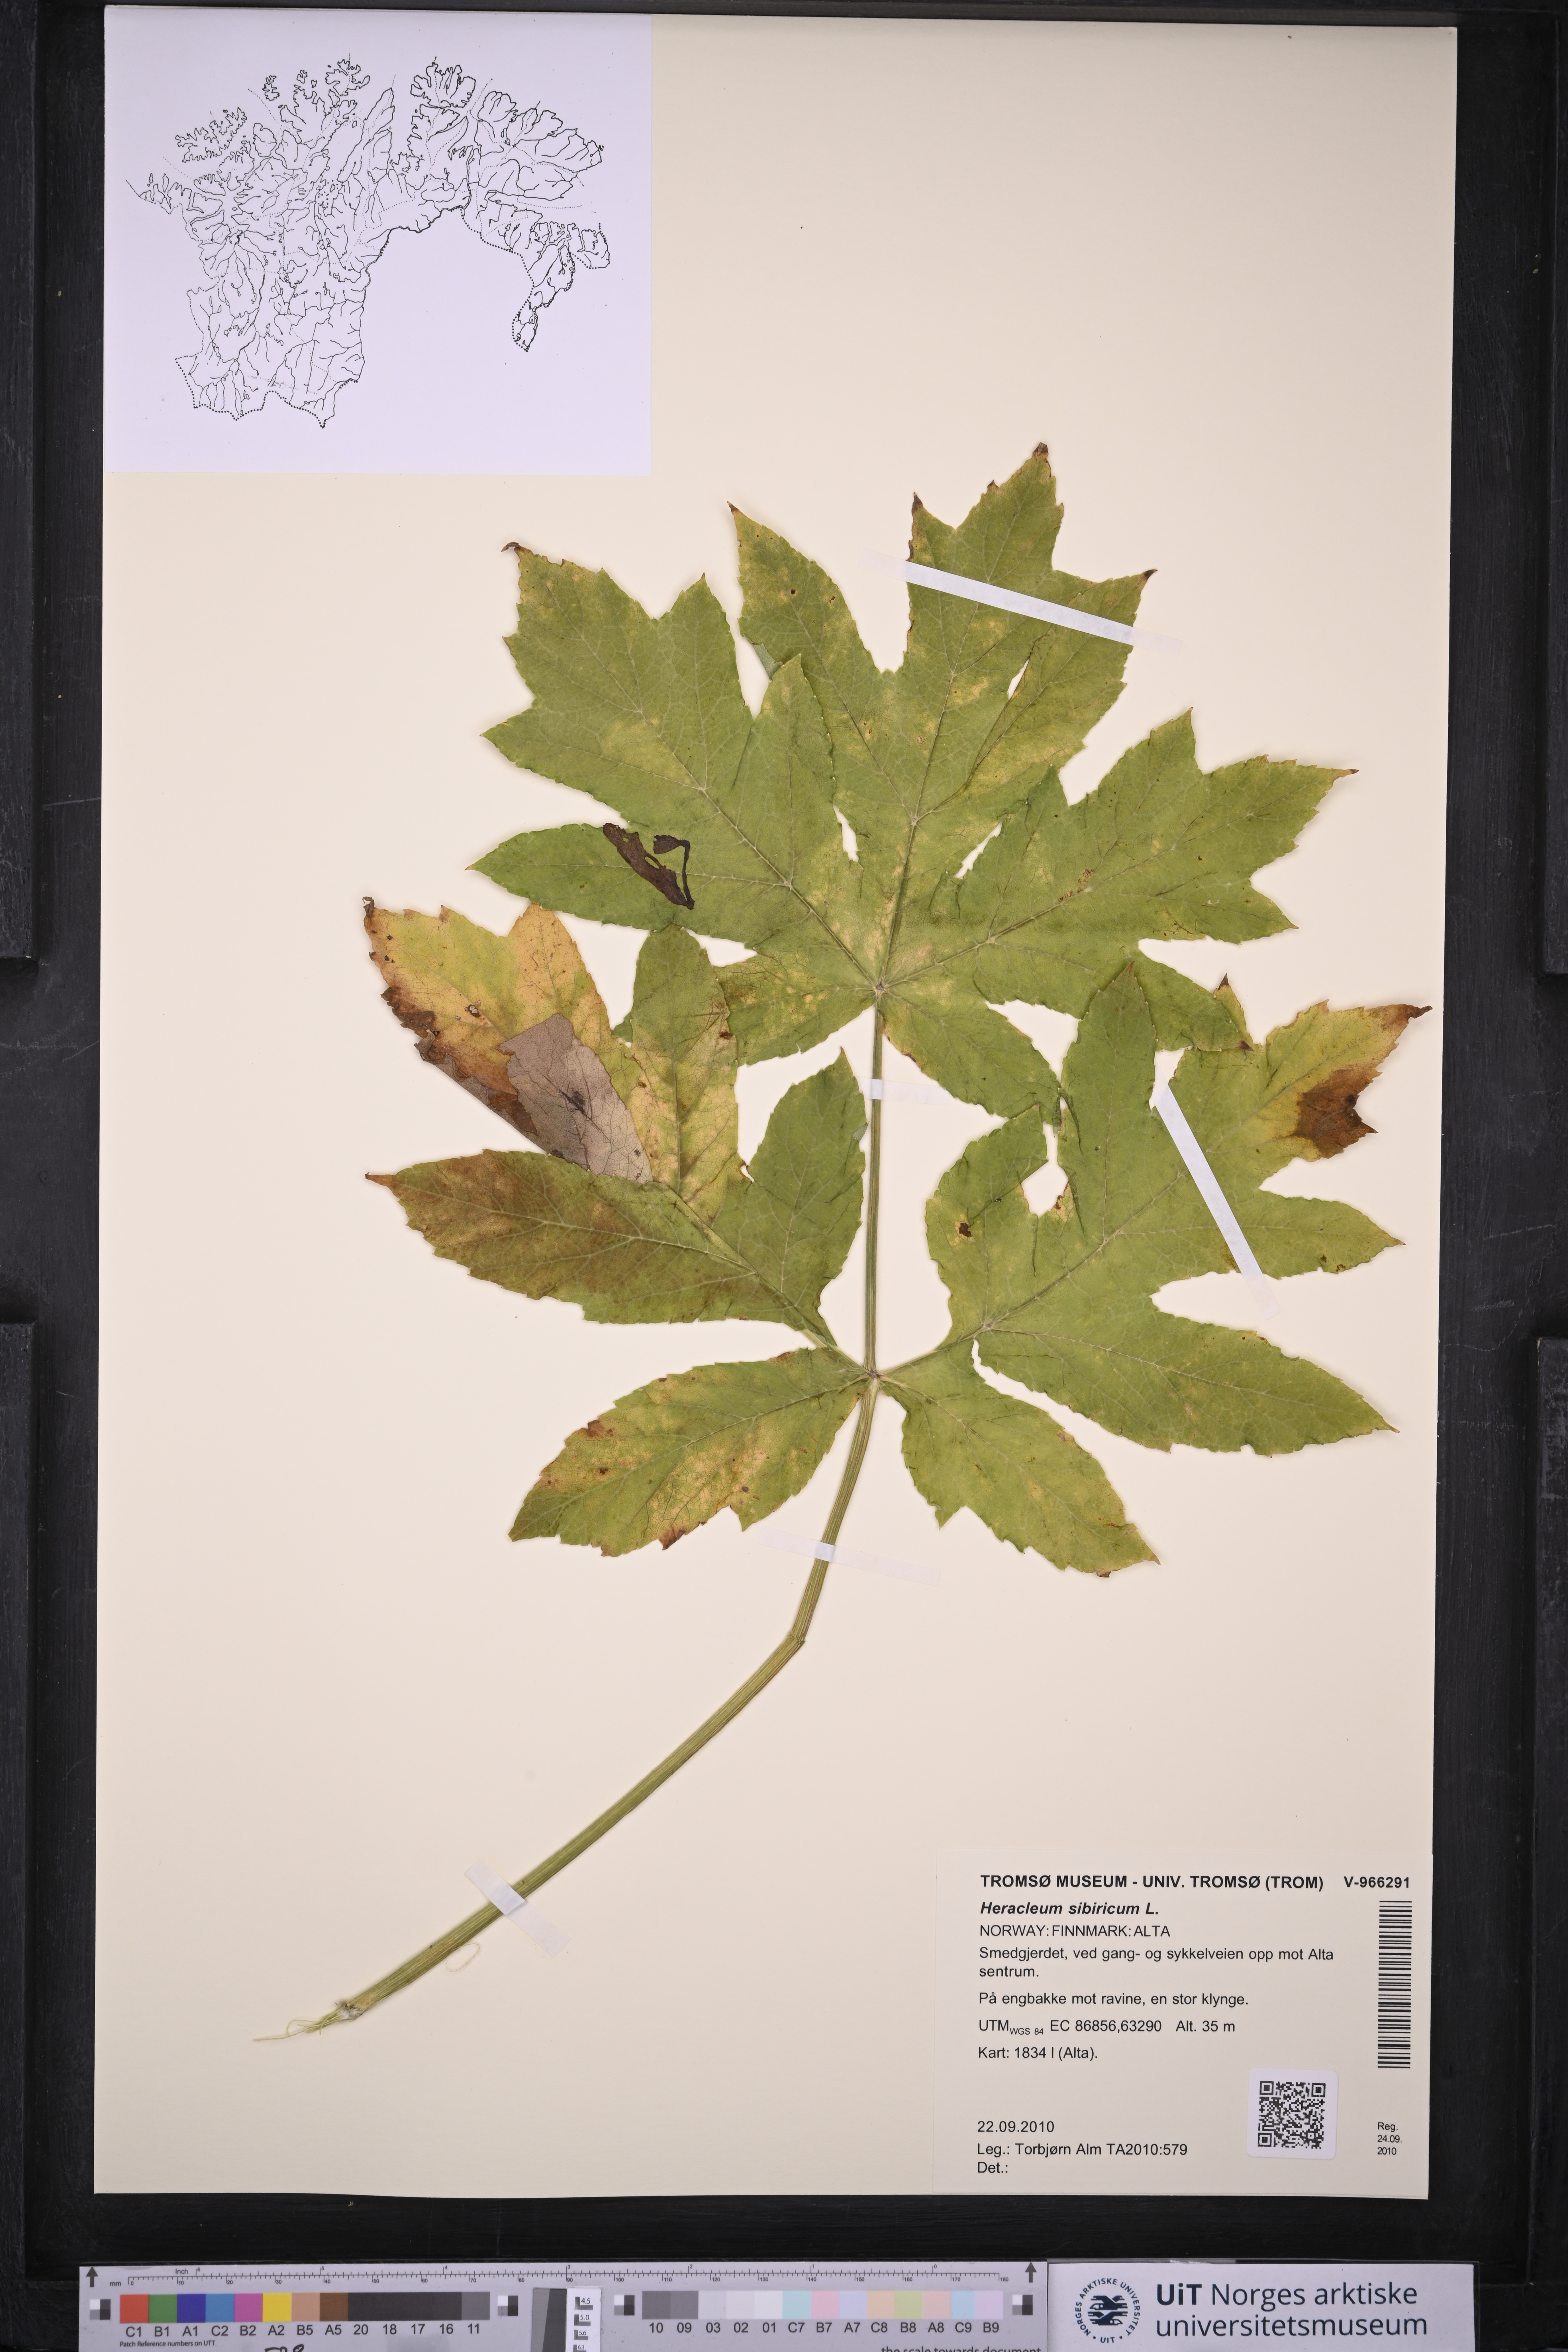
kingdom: Plantae
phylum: Tracheophyta
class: Magnoliopsida
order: Apiales
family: Apiaceae
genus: Heracleum
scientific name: Heracleum sphondylium
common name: Hogweed
